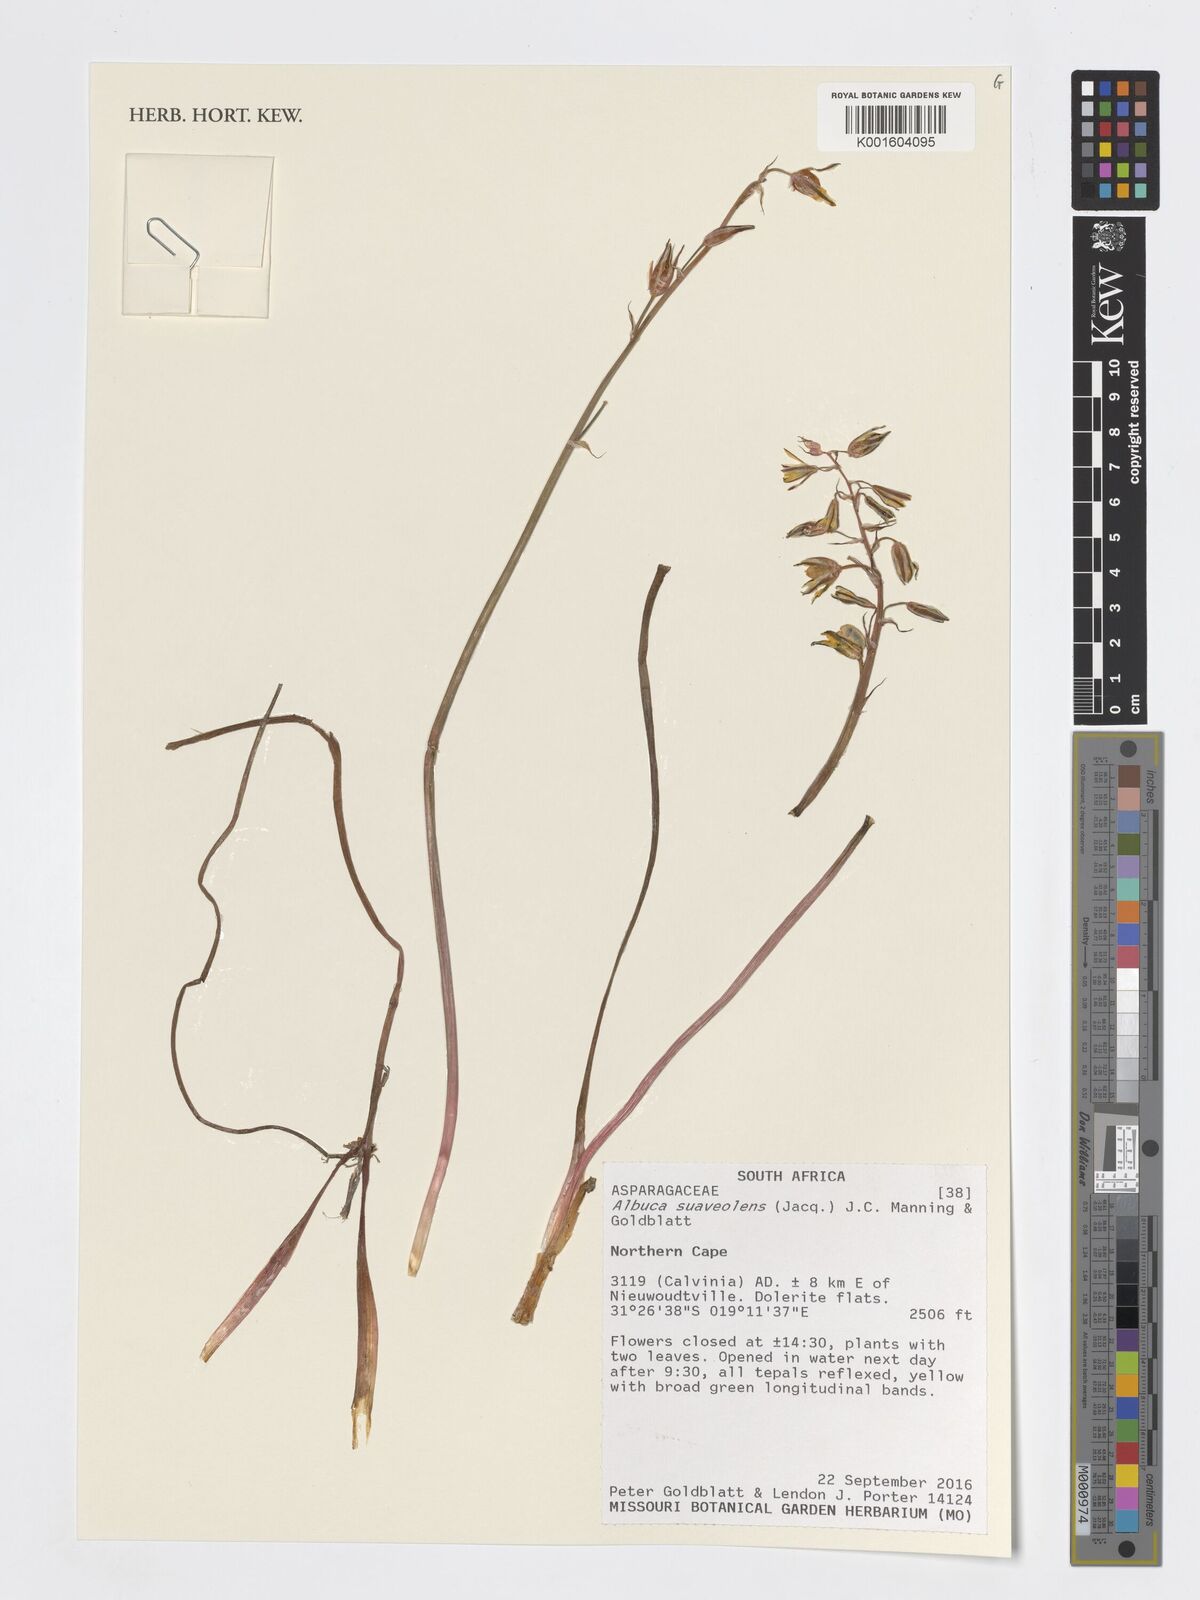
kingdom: Plantae
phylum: Tracheophyta
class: Liliopsida
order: Asparagales
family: Asparagaceae
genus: Albuca
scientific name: Albuca suaveolens
